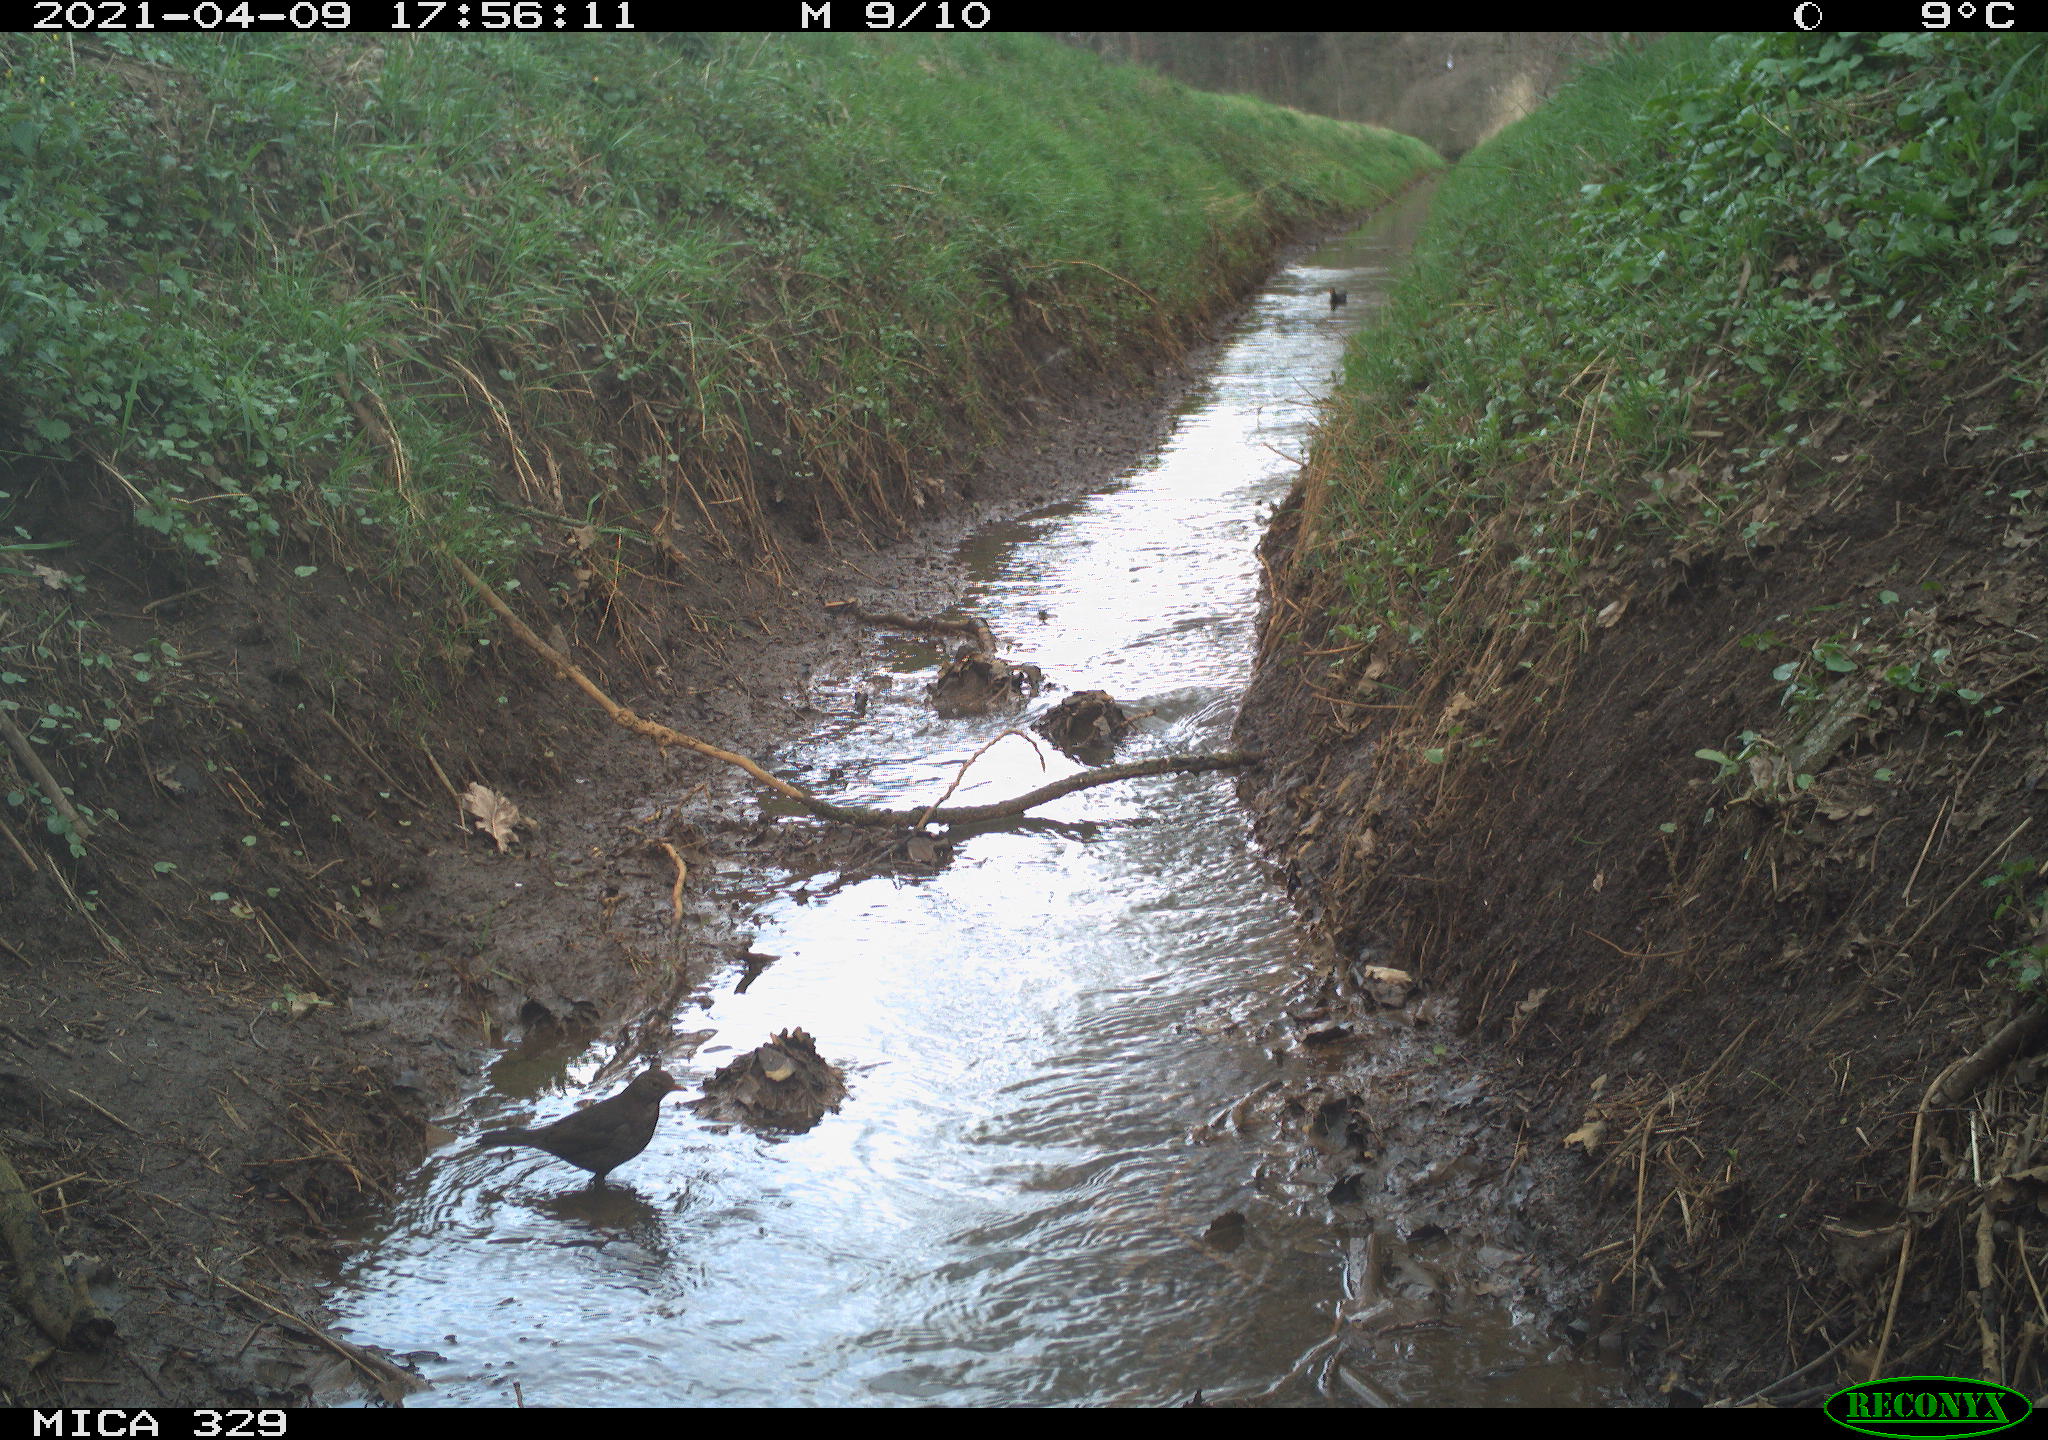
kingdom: Animalia
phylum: Chordata
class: Aves
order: Columbiformes
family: Columbidae
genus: Columba
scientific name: Columba palumbus
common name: Common wood pigeon
